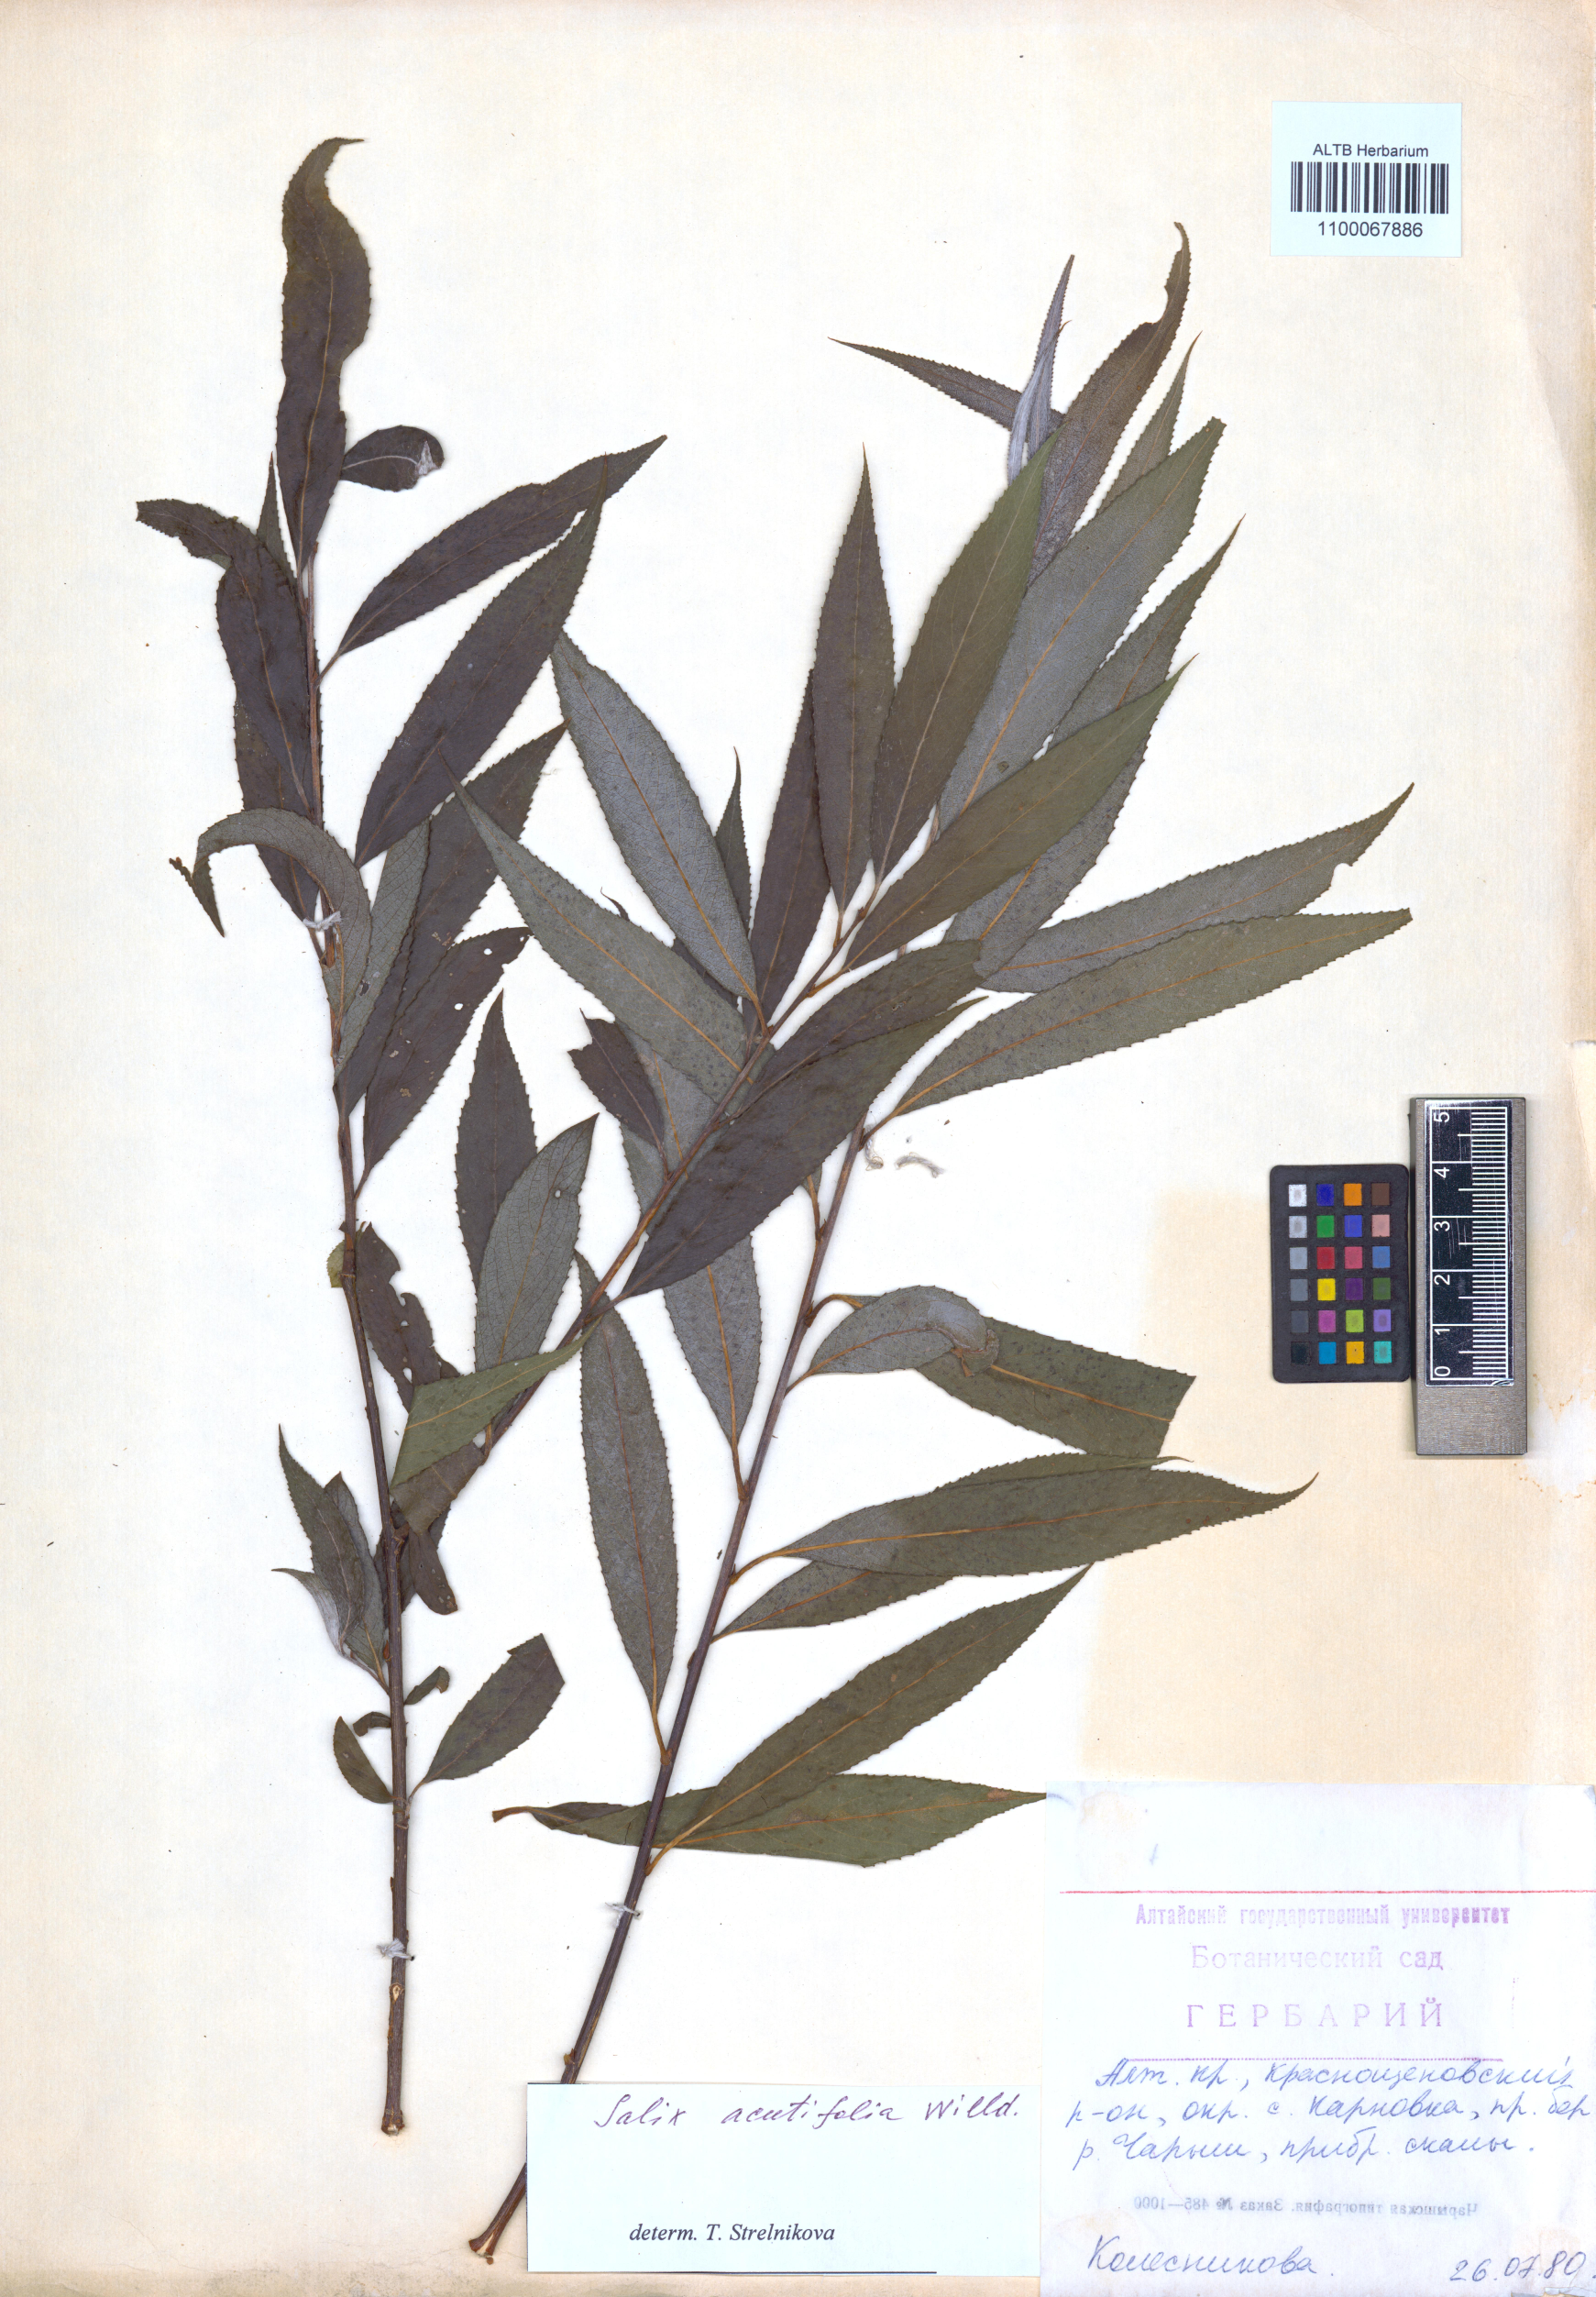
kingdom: Plantae
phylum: Tracheophyta
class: Magnoliopsida
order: Malpighiales
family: Salicaceae
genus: Salix
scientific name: Salix acutifolia
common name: Siberian violet-willow
